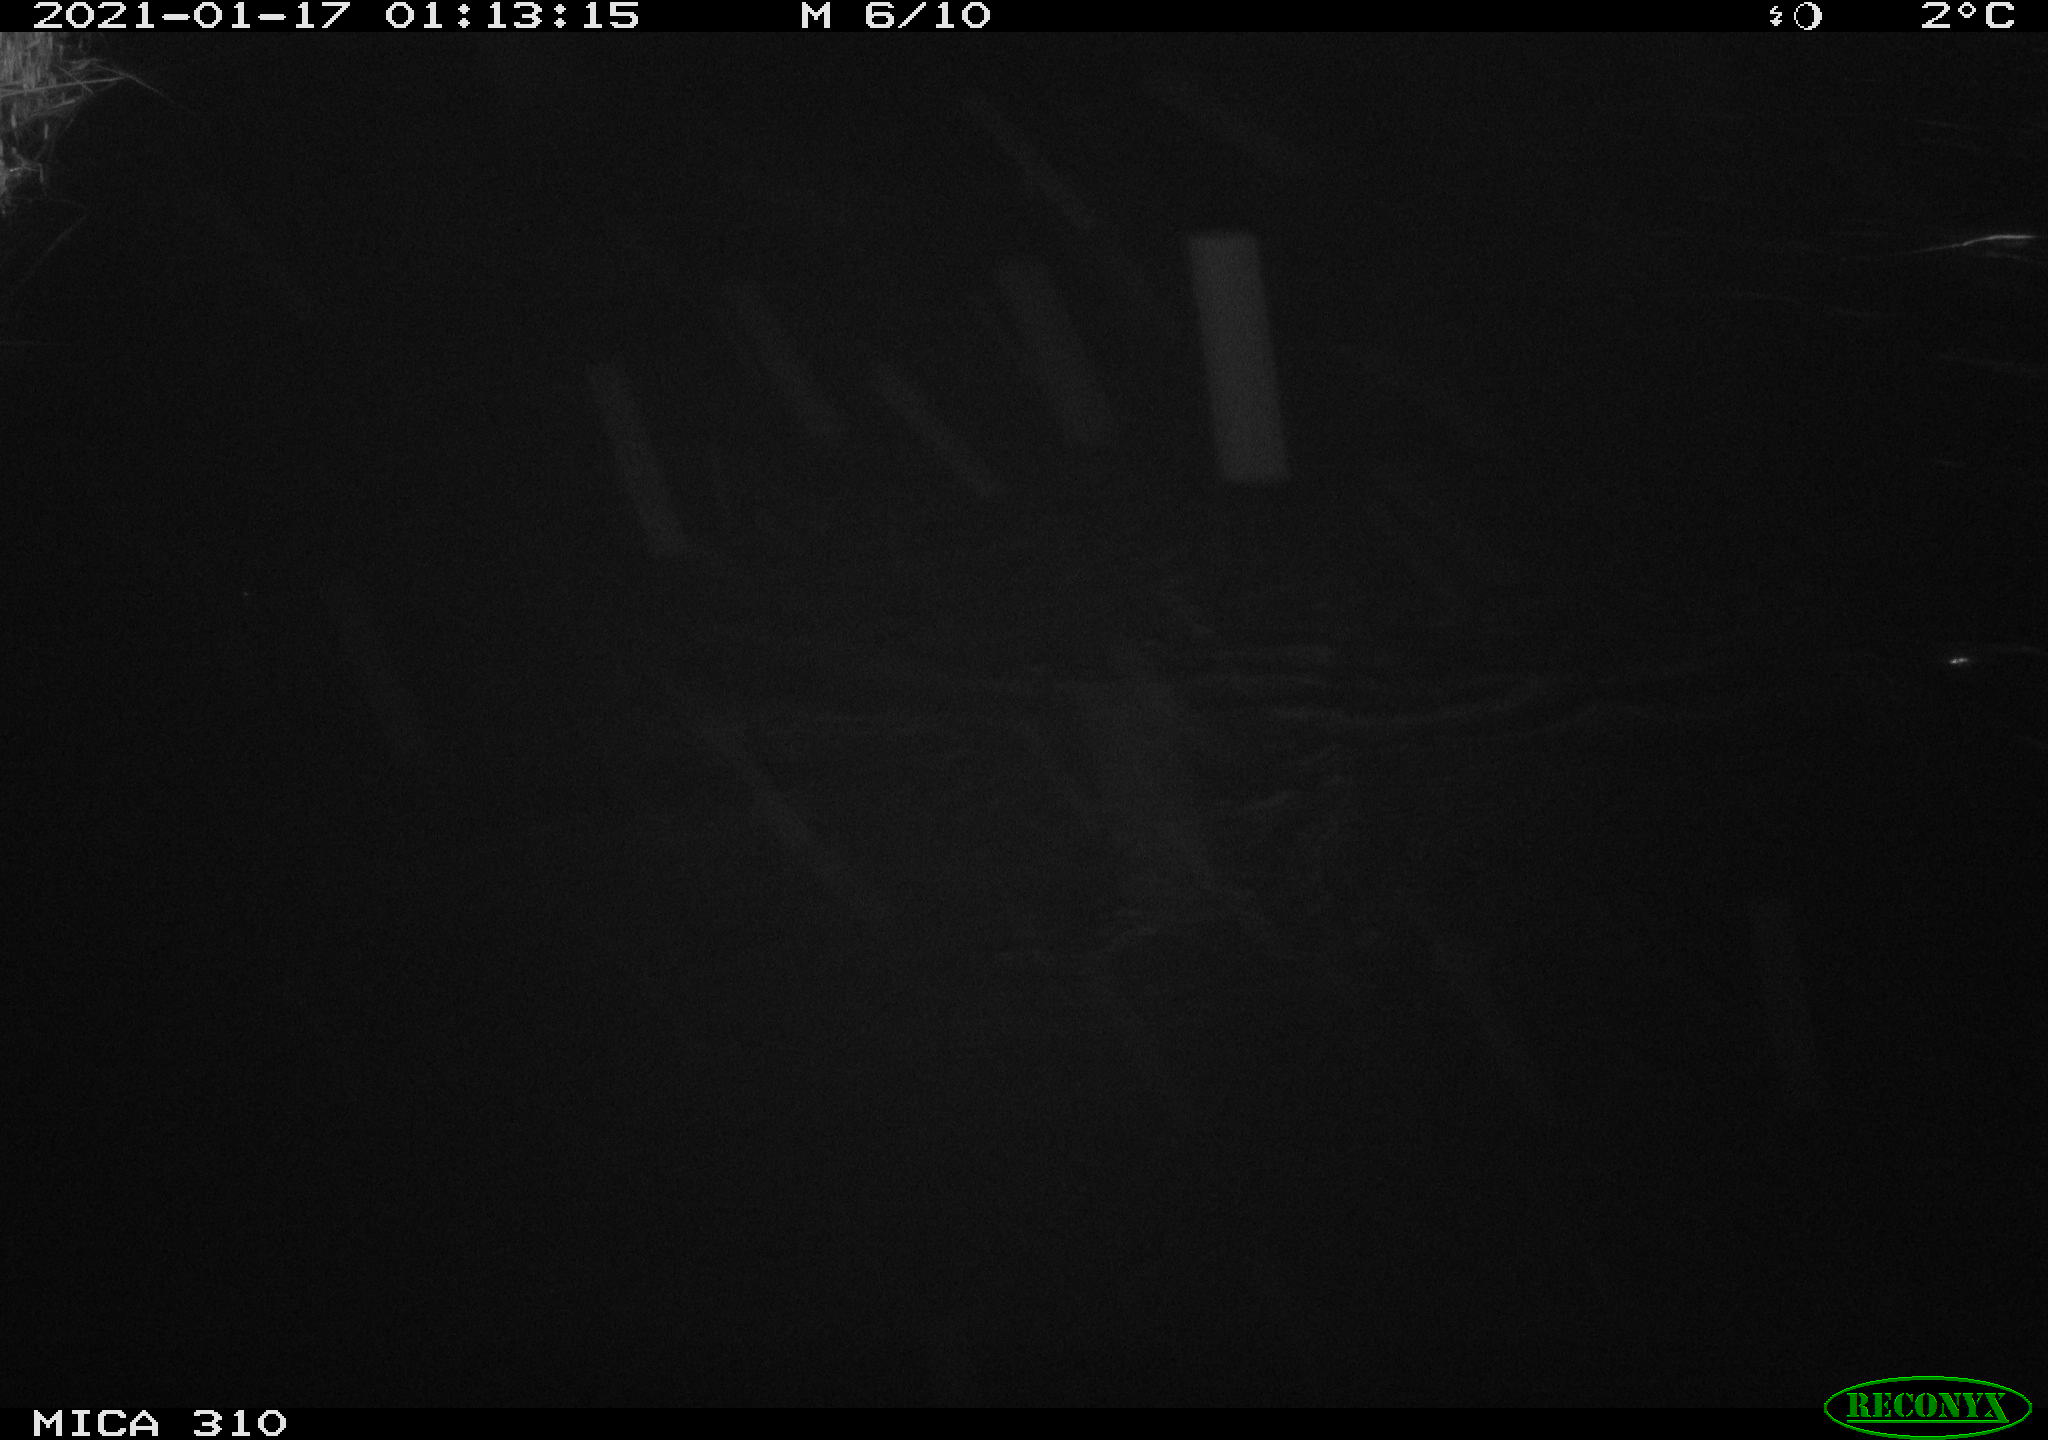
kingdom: Animalia
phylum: Chordata
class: Aves
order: Anseriformes
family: Anatidae
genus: Anas
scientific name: Anas platyrhynchos
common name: Mallard
